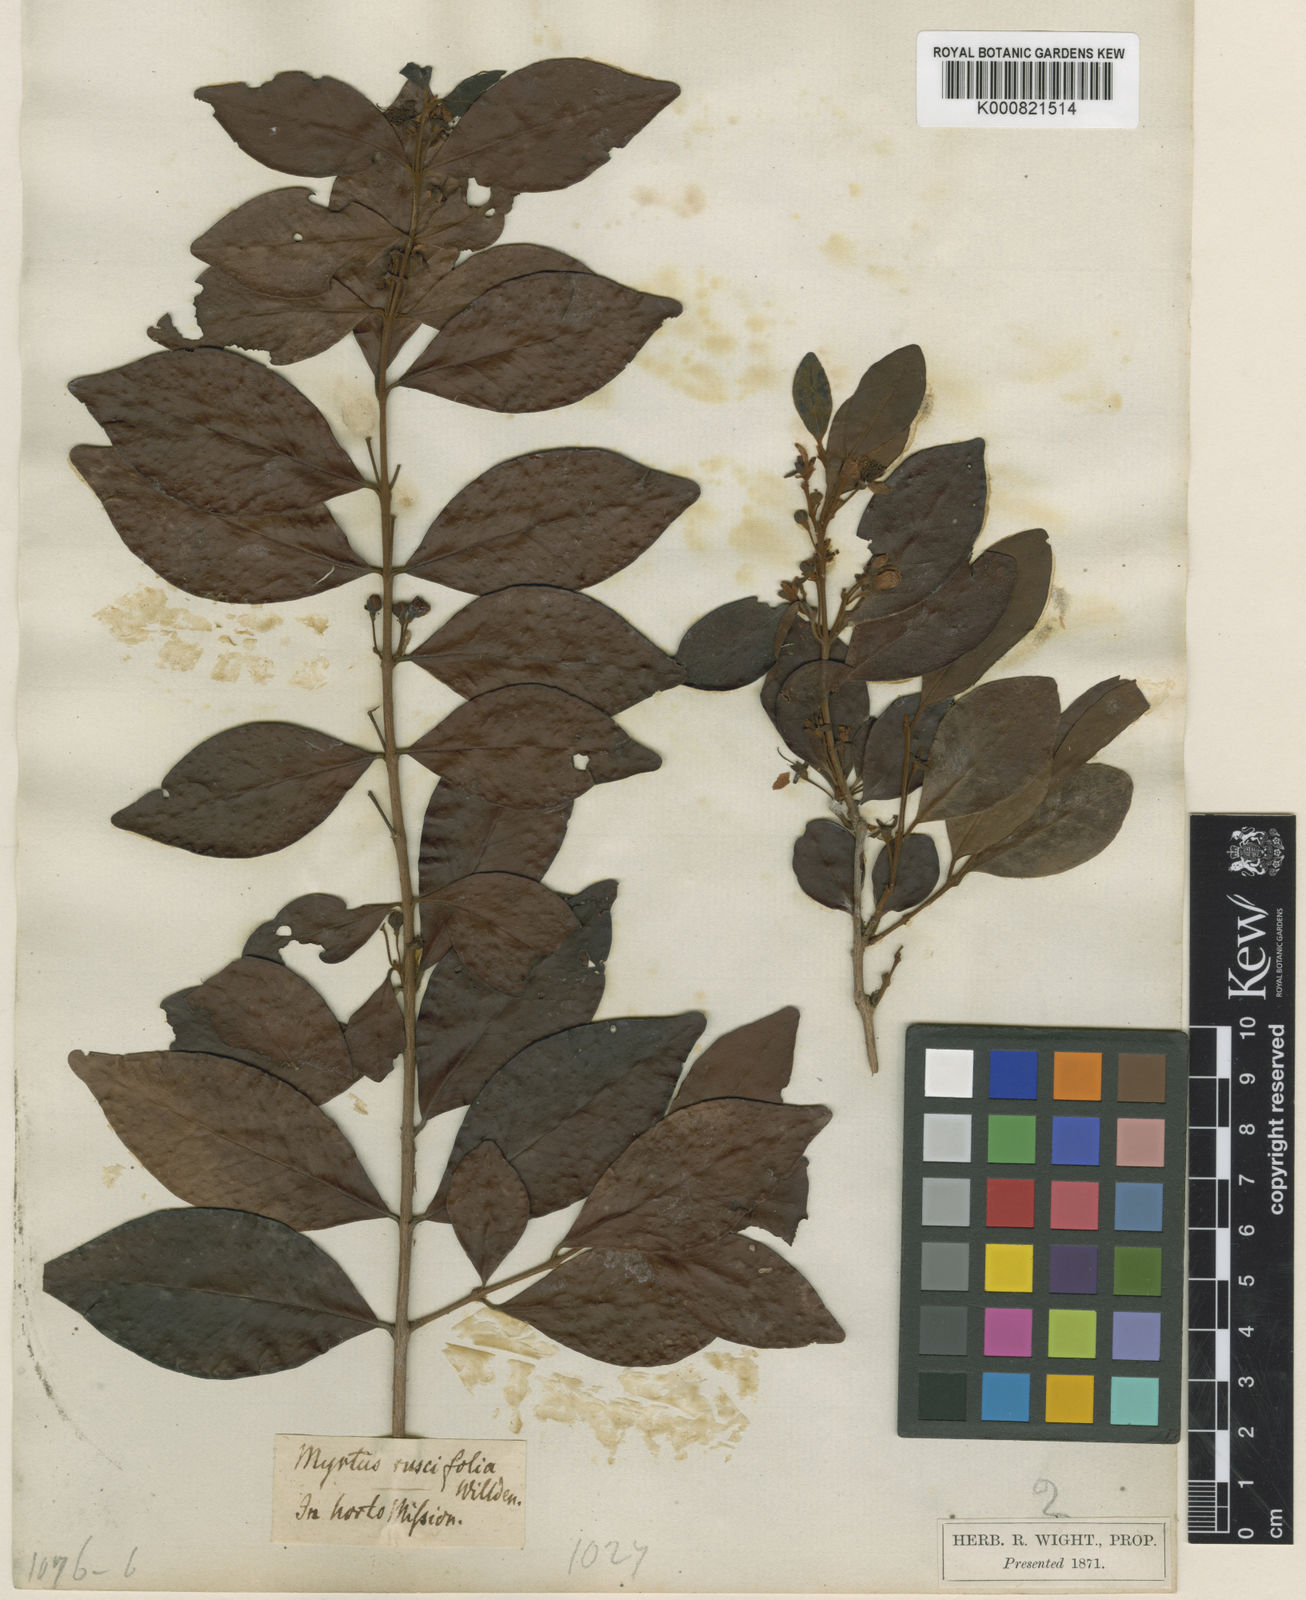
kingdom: Plantae
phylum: Tracheophyta
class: Magnoliopsida
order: Myrtales
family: Myrtaceae
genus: Myrcia
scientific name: Myrcia bracteata
